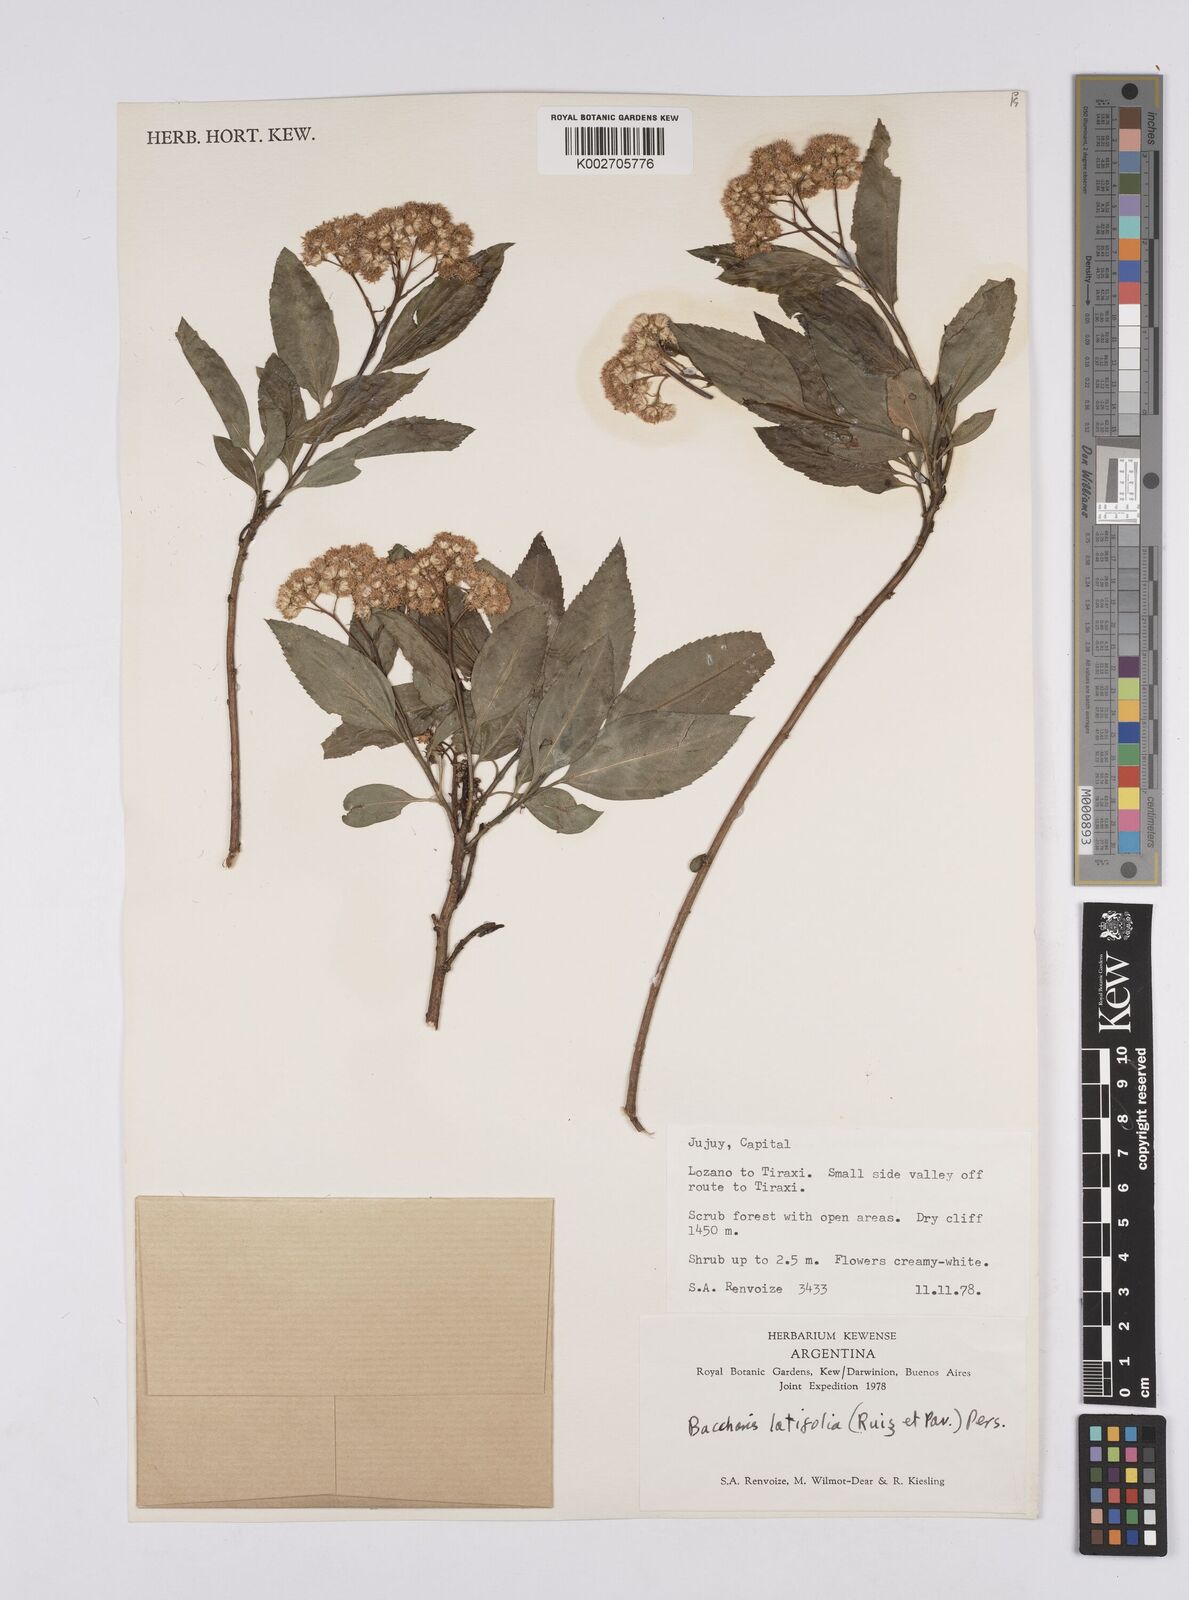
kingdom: Plantae
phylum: Tracheophyta
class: Magnoliopsida
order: Asterales
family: Asteraceae
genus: Baccharis
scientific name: Baccharis latifolia
